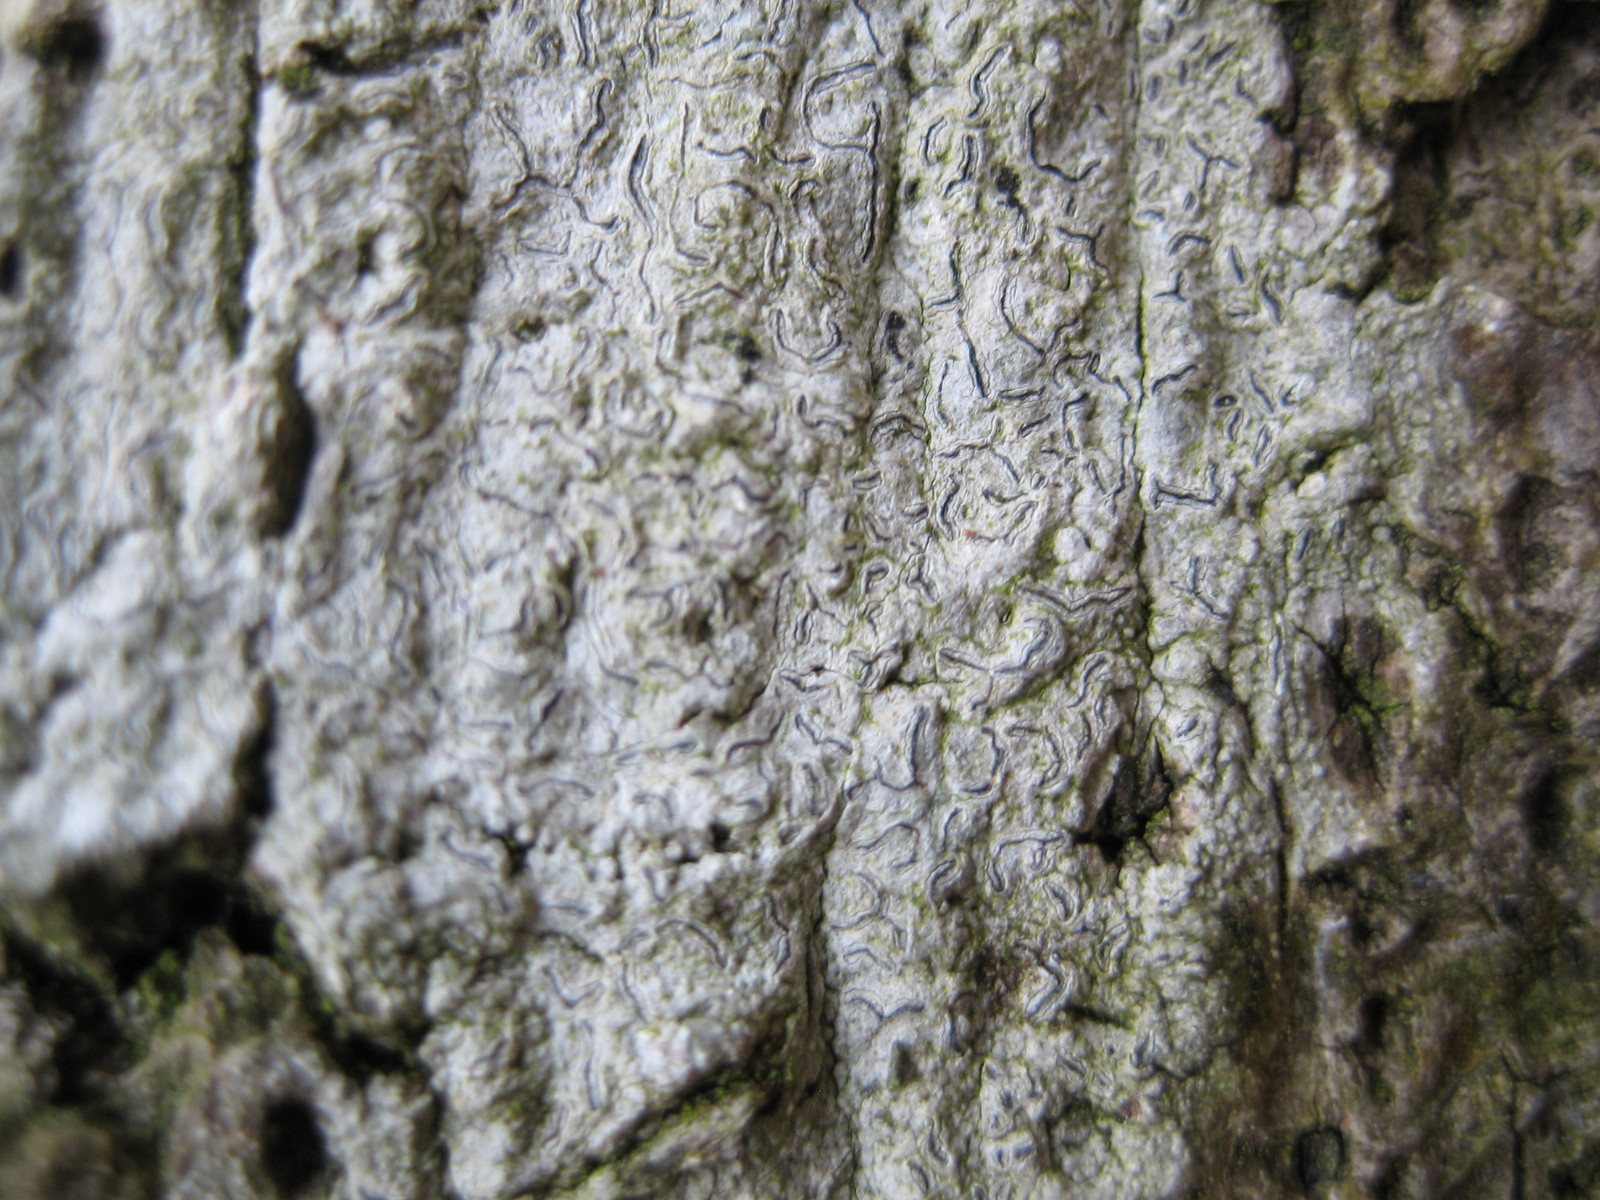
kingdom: Fungi
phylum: Ascomycota
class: Lecanoromycetes
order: Ostropales
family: Graphidaceae
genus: Graphis
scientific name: Graphis scripta
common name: almindelig skriftlav
